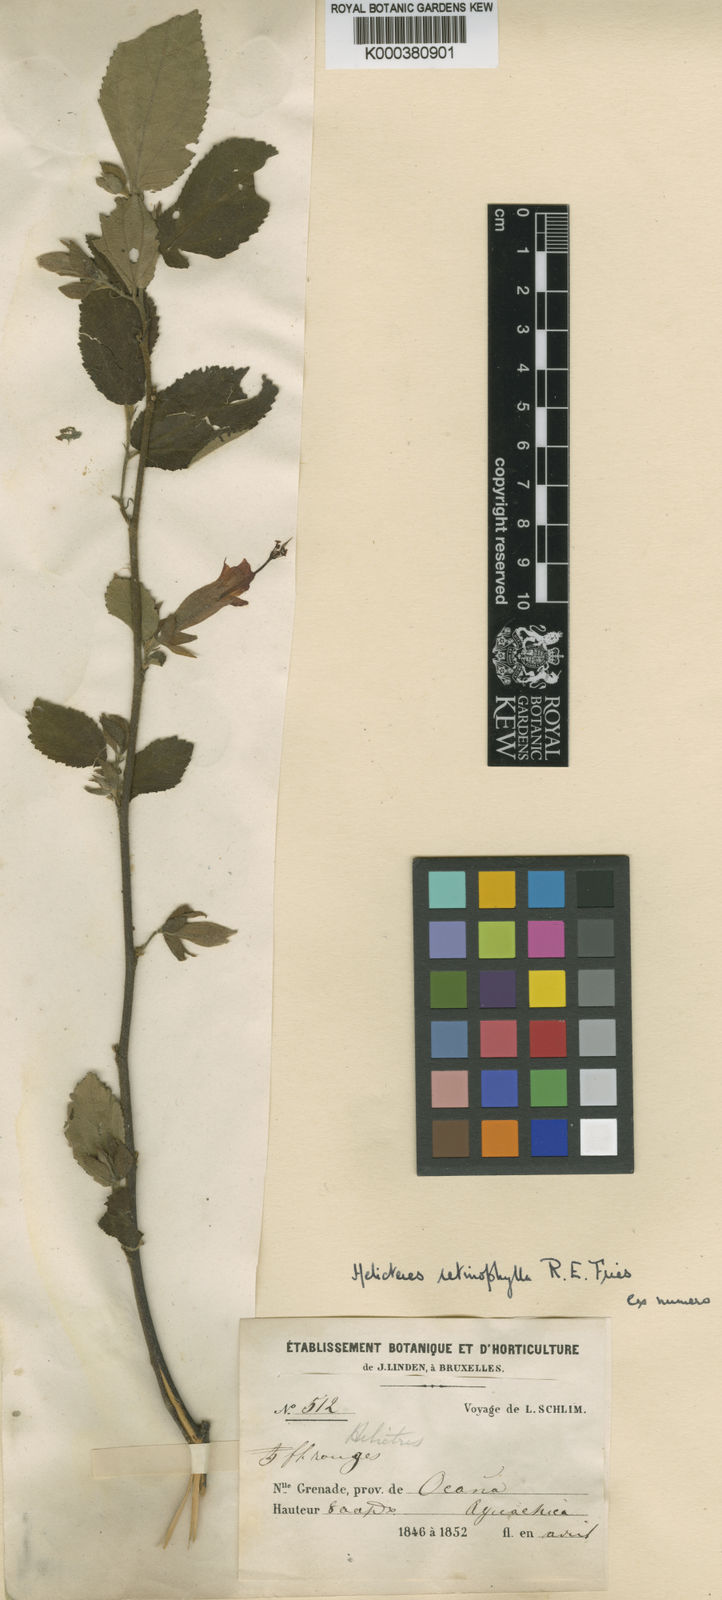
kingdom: Plantae
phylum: Tracheophyta
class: Magnoliopsida
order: Malvales
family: Malvaceae
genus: Helicteres
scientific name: Helicteres guazumifolia
